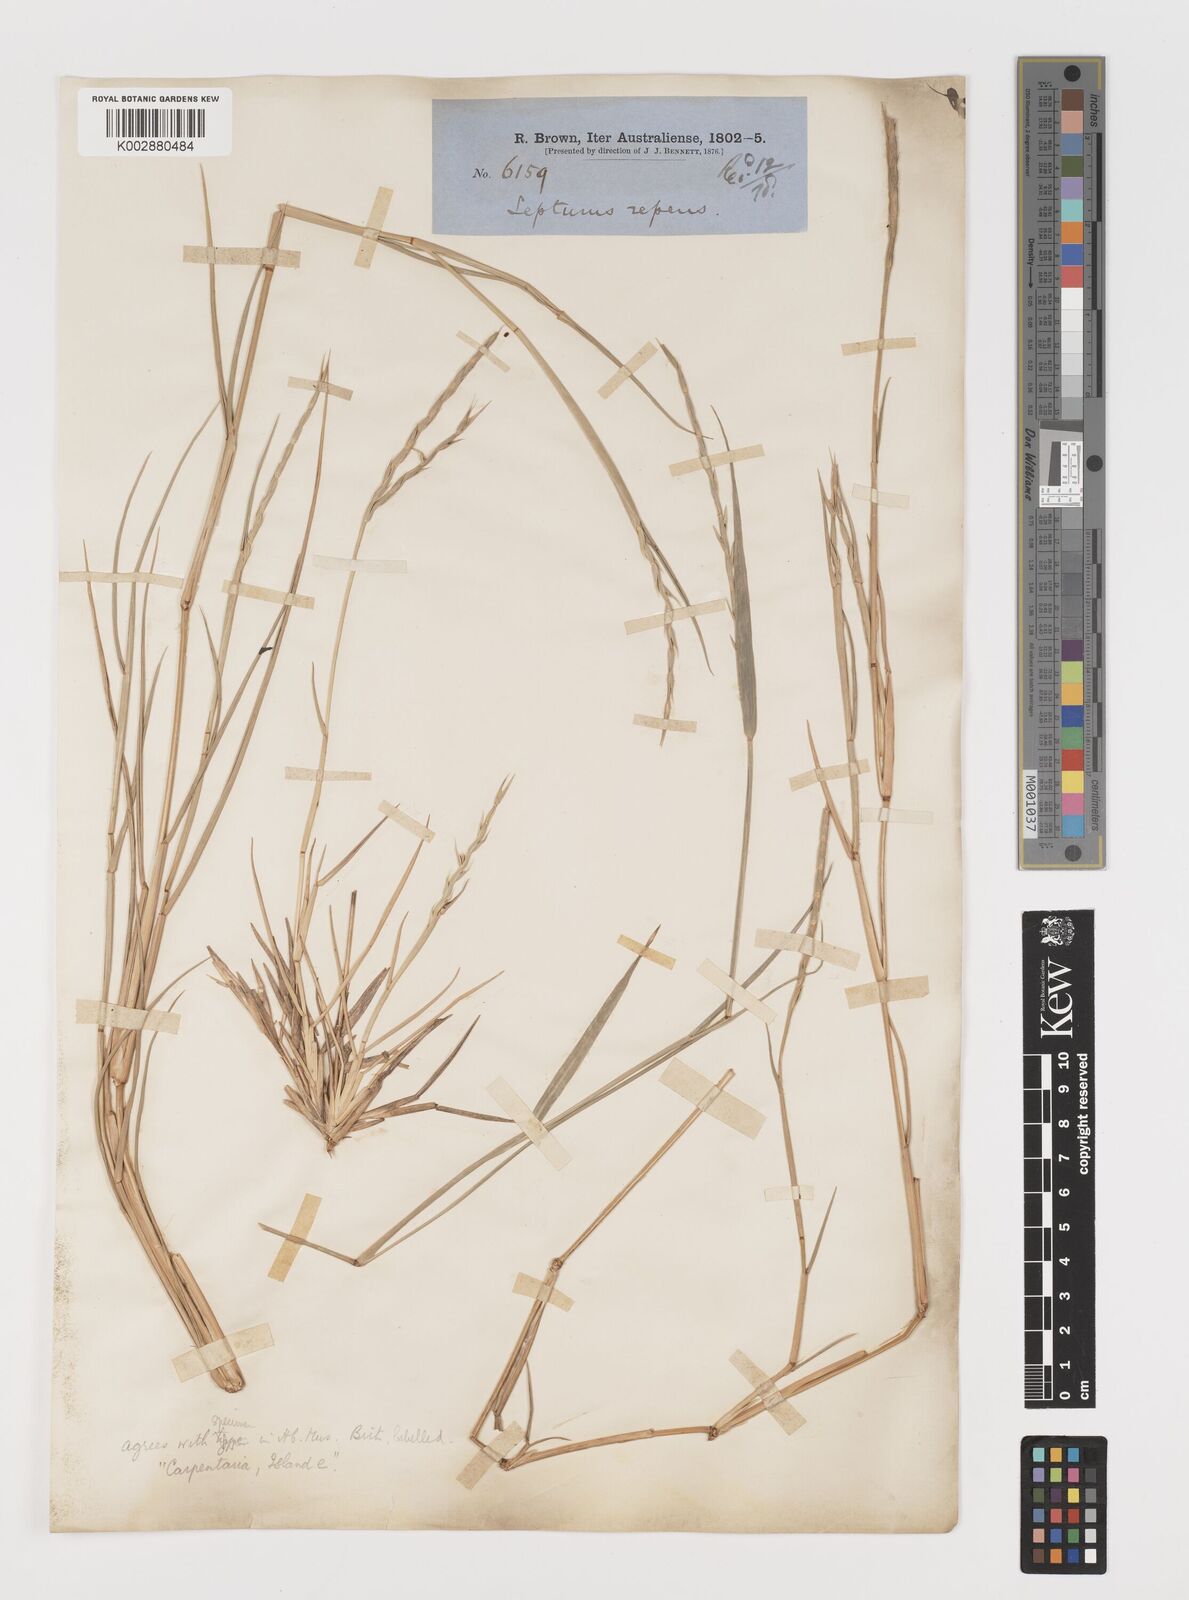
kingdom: Plantae
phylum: Tracheophyta
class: Liliopsida
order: Poales
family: Poaceae
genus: Lepturus
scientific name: Lepturus repens
